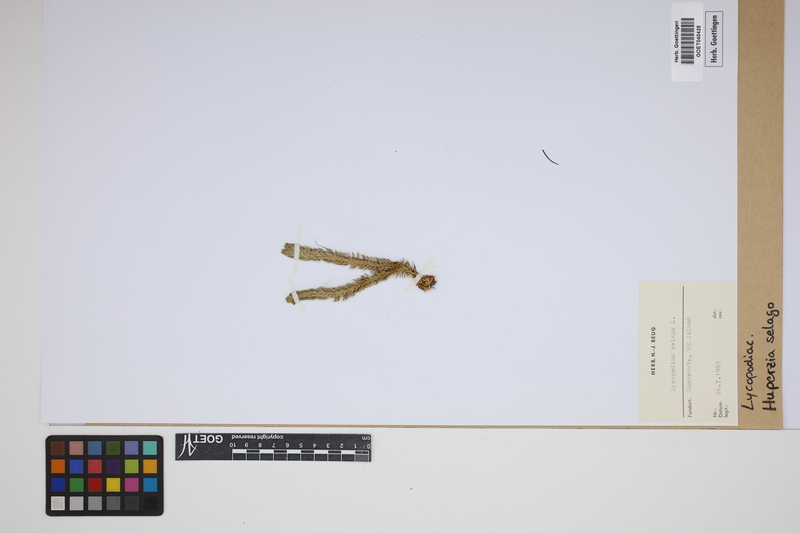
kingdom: Plantae
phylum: Tracheophyta
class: Lycopodiopsida
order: Lycopodiales
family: Lycopodiaceae
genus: Huperzia
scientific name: Huperzia selago
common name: Northern firmoss
